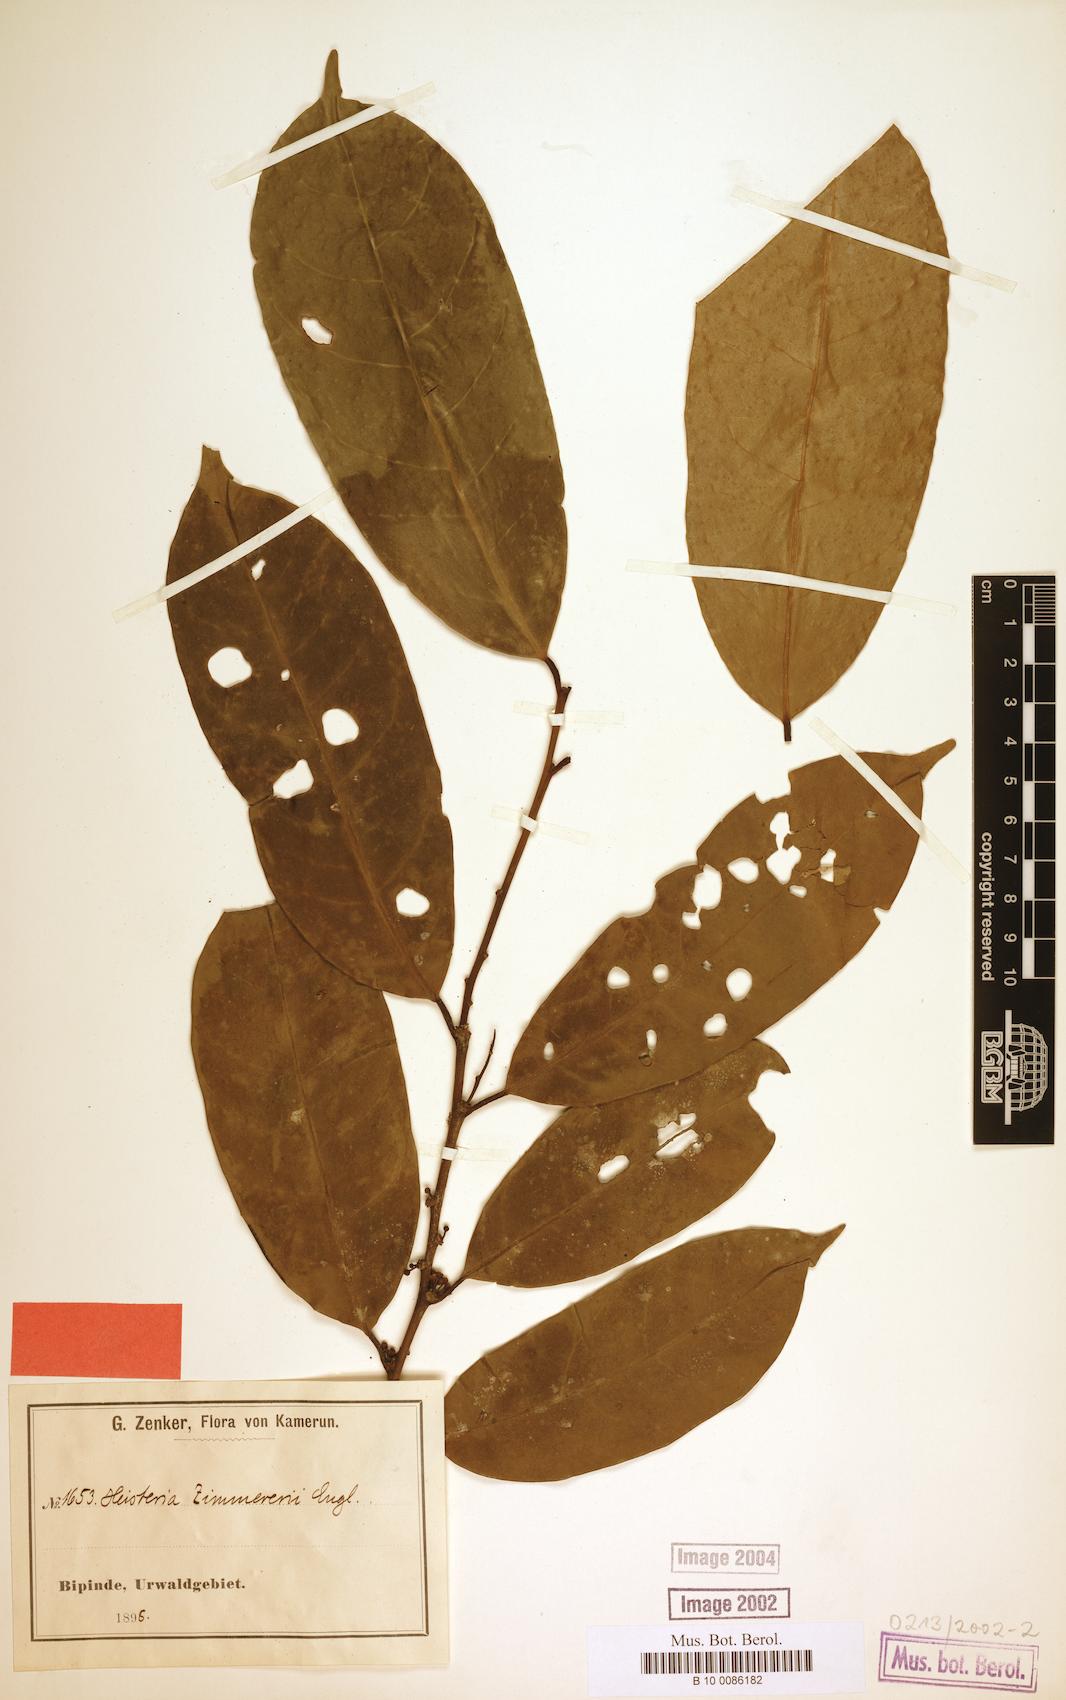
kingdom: Plantae
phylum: Tracheophyta
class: Magnoliopsida
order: Santalales
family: Erythropalaceae
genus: Heisteria
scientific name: Heisteria zimmereri
